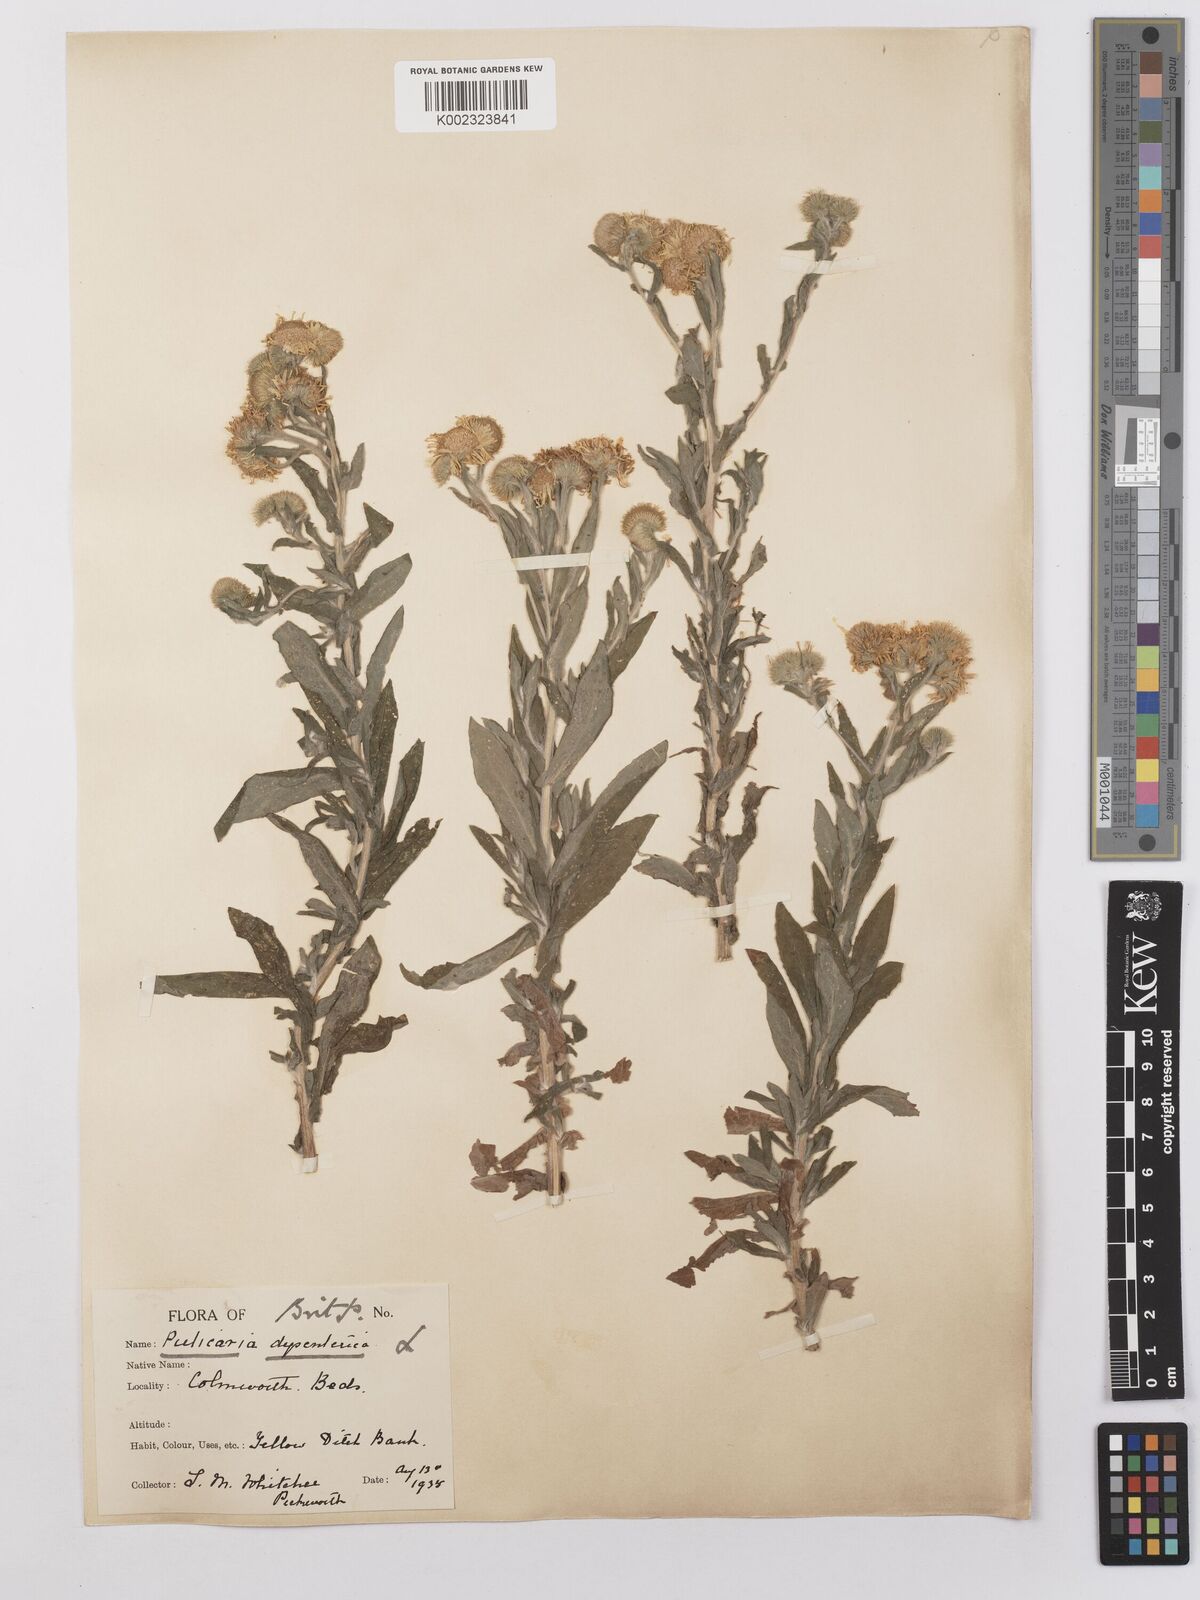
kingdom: Plantae
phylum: Tracheophyta
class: Magnoliopsida
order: Asterales
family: Asteraceae
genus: Pulicaria
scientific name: Pulicaria dysenterica
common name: Common fleabane
